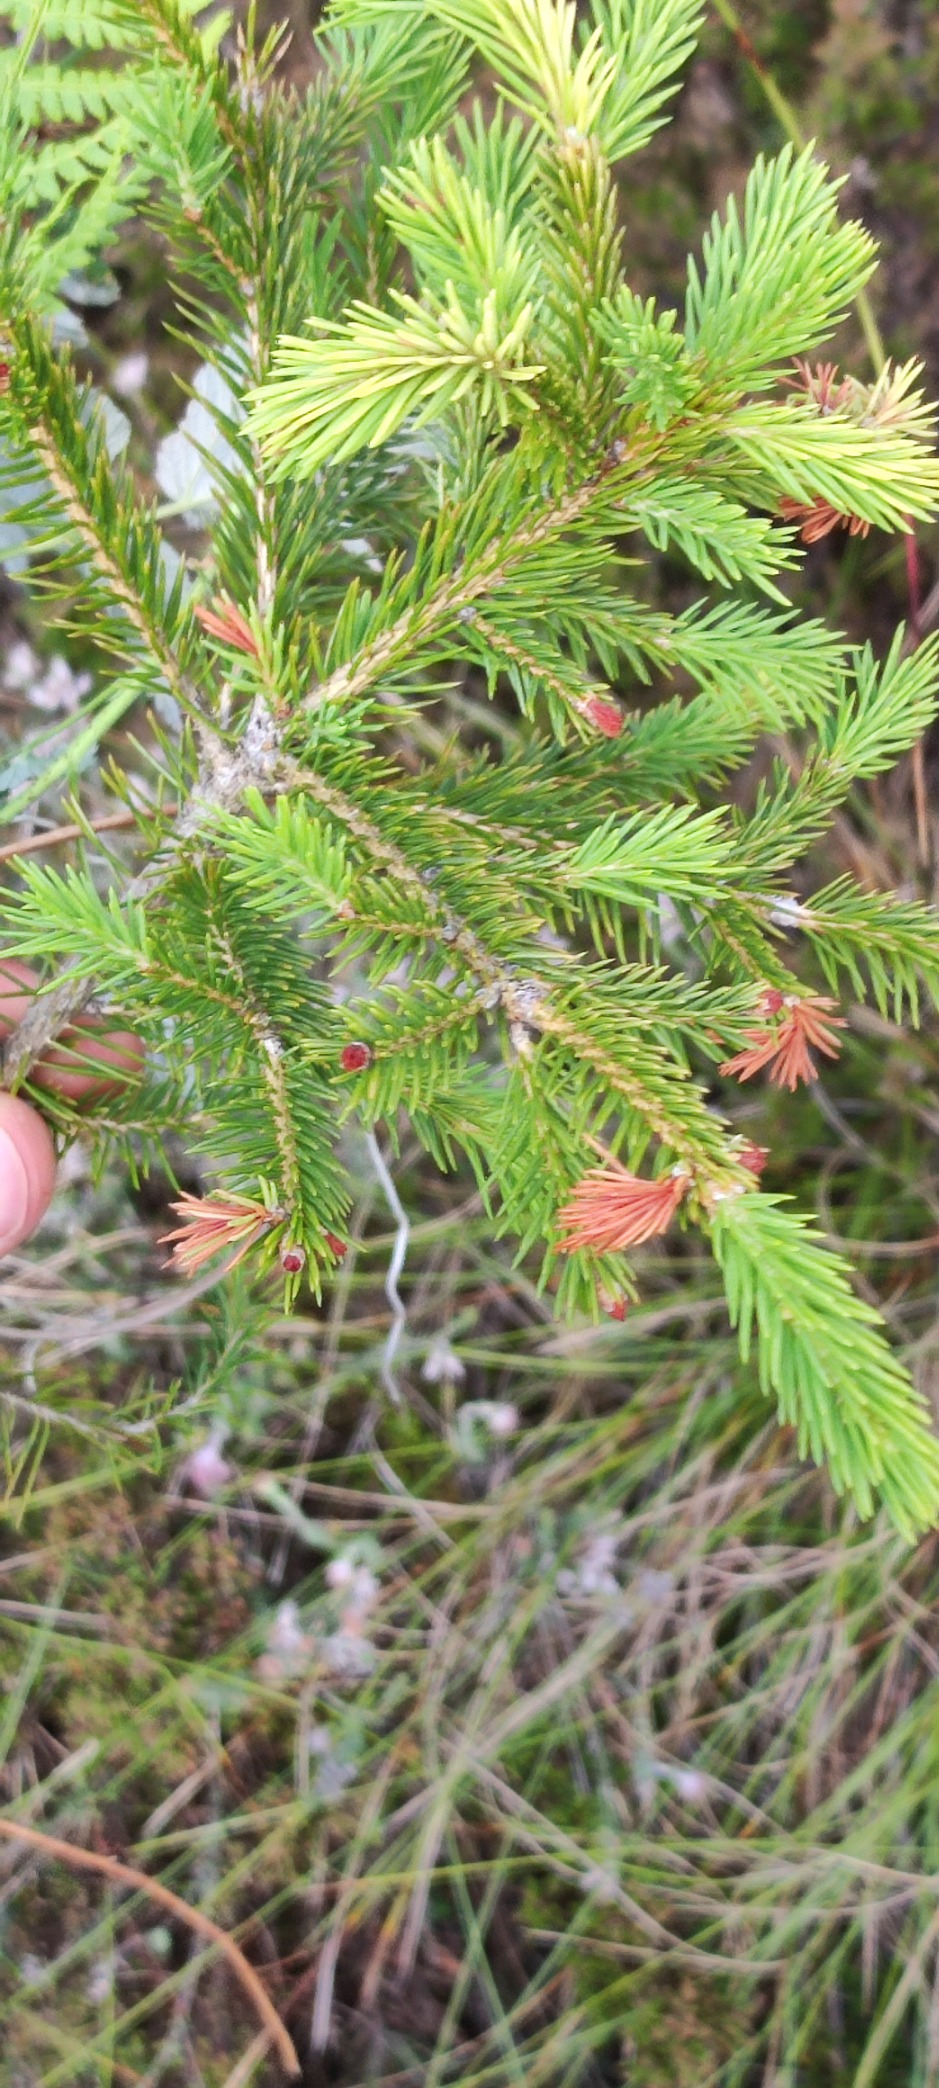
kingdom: Plantae
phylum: Tracheophyta
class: Pinopsida
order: Pinales
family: Pinaceae
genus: Picea
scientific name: Picea abies
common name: Rød-gran
